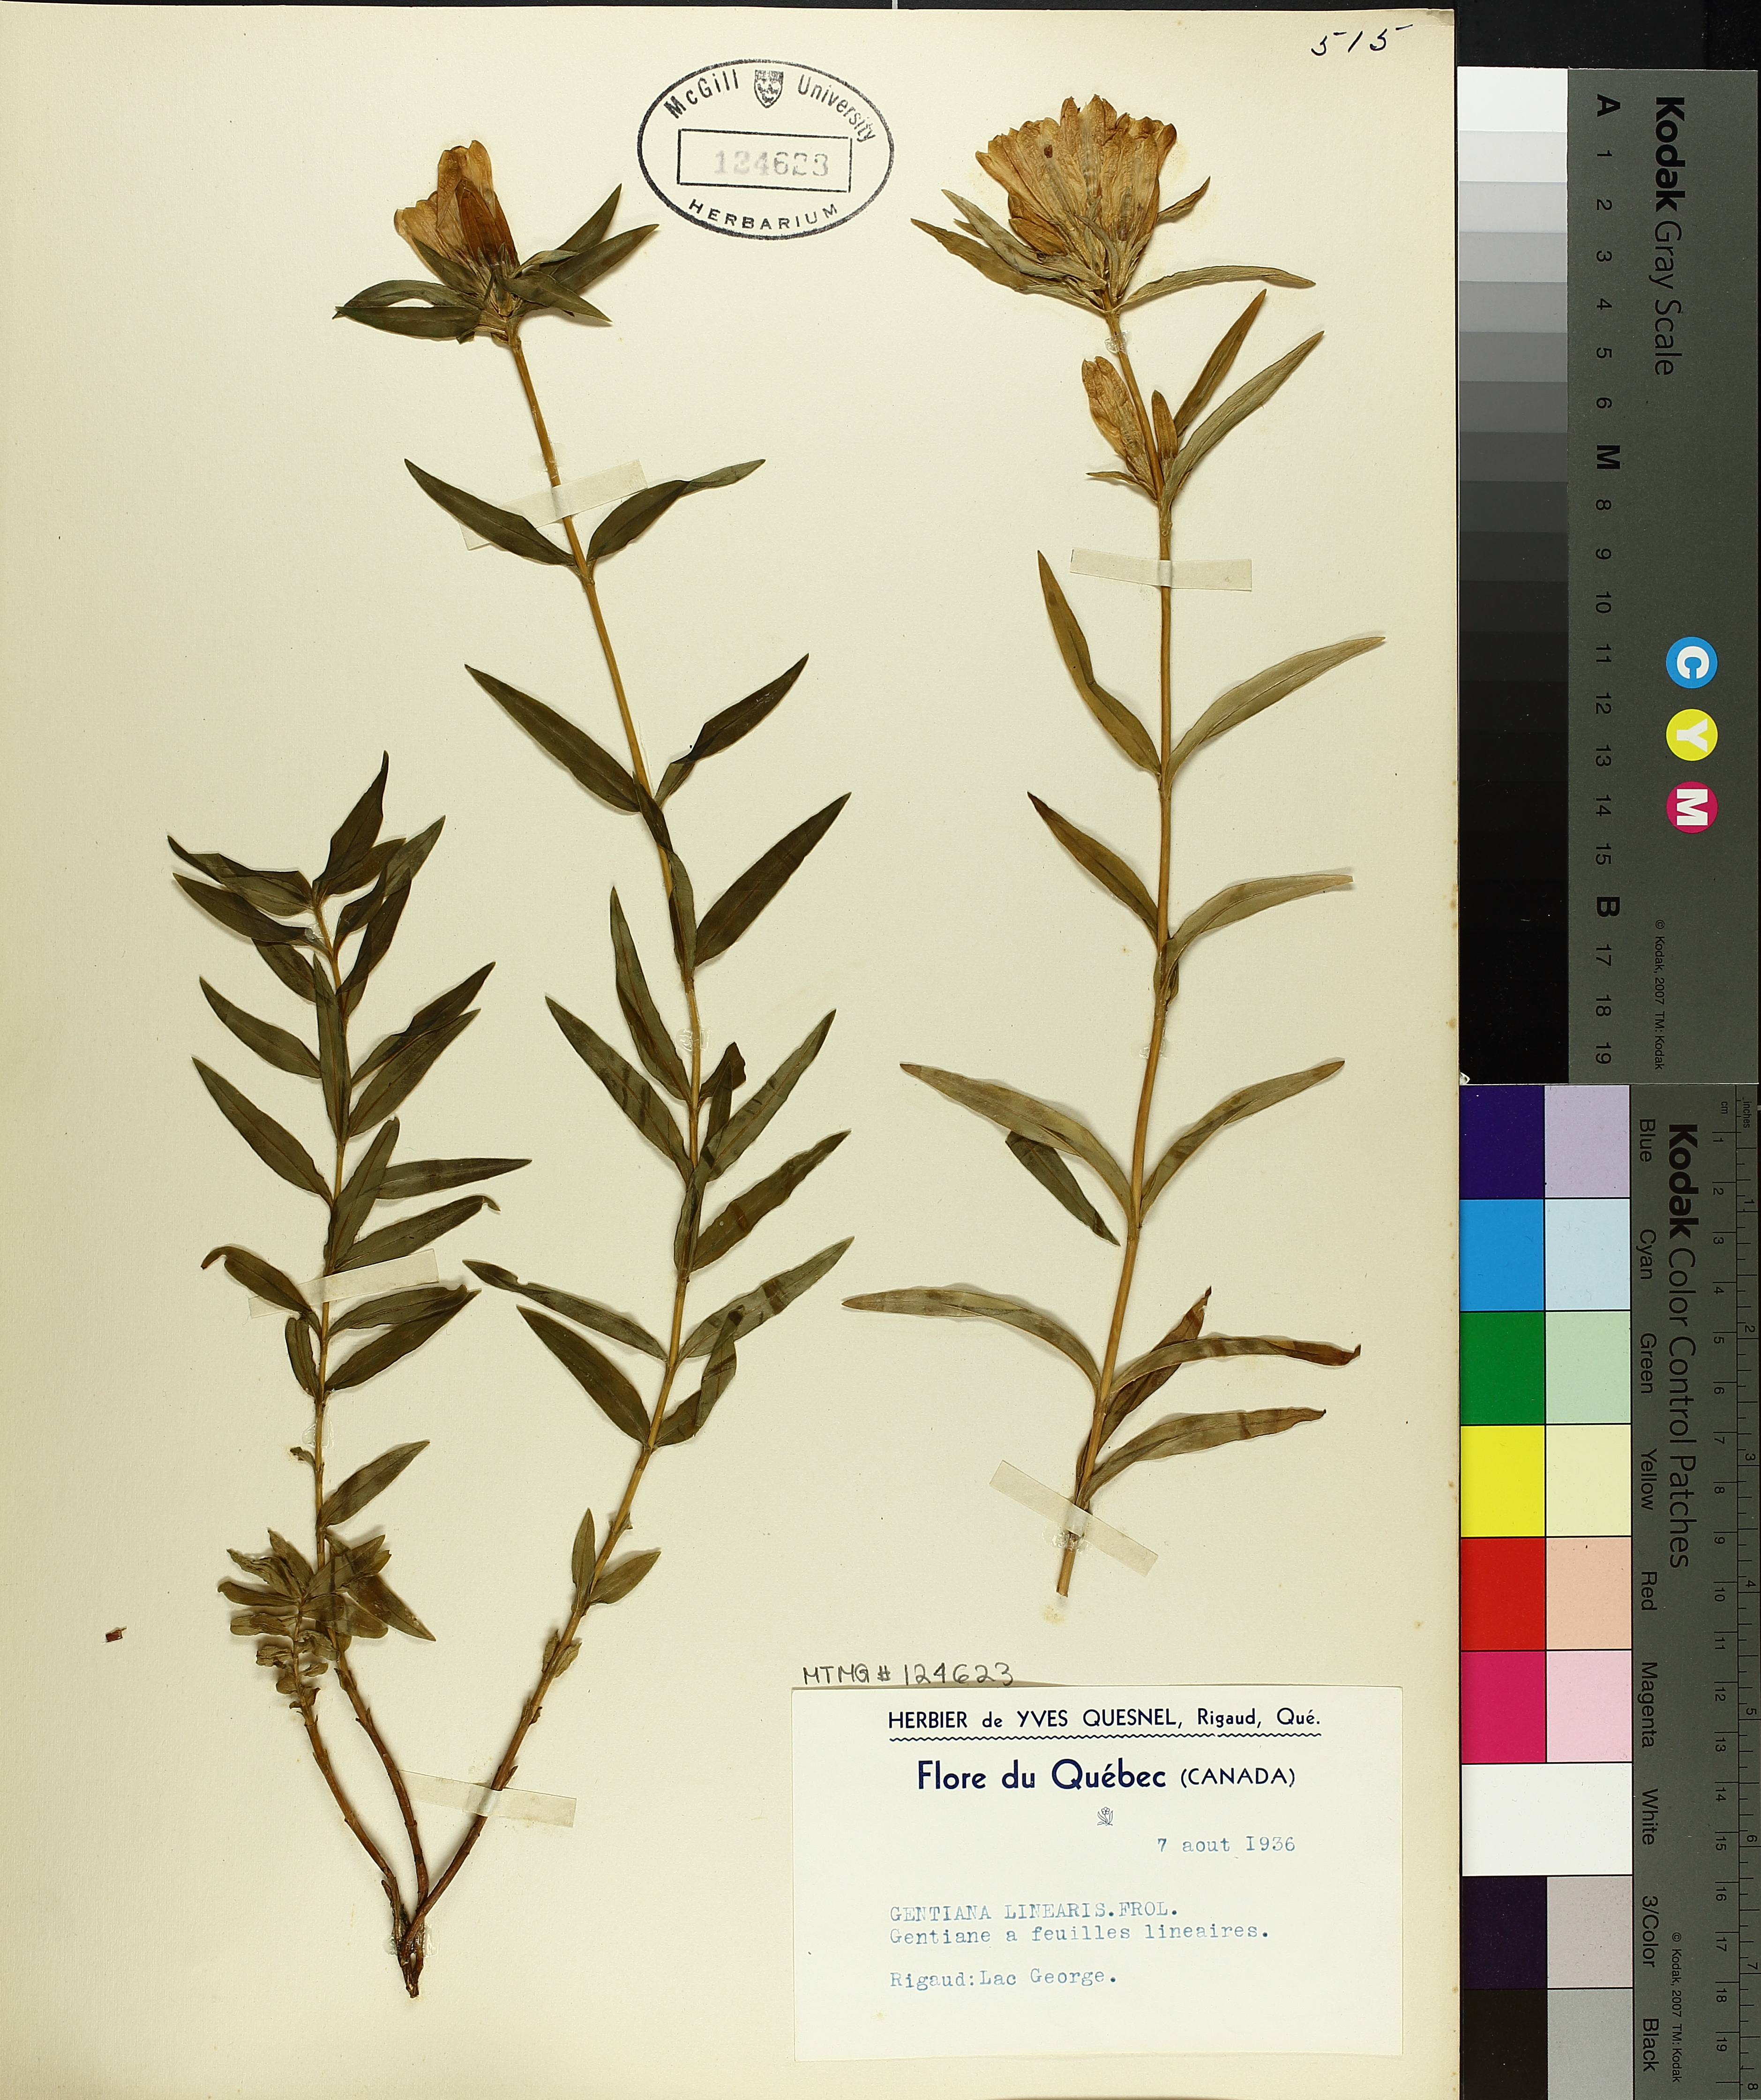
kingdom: Plantae
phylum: Tracheophyta
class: Magnoliopsida
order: Gentianales
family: Gentianaceae
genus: Gentiana
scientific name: Gentiana linearis
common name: Bastard gentian
